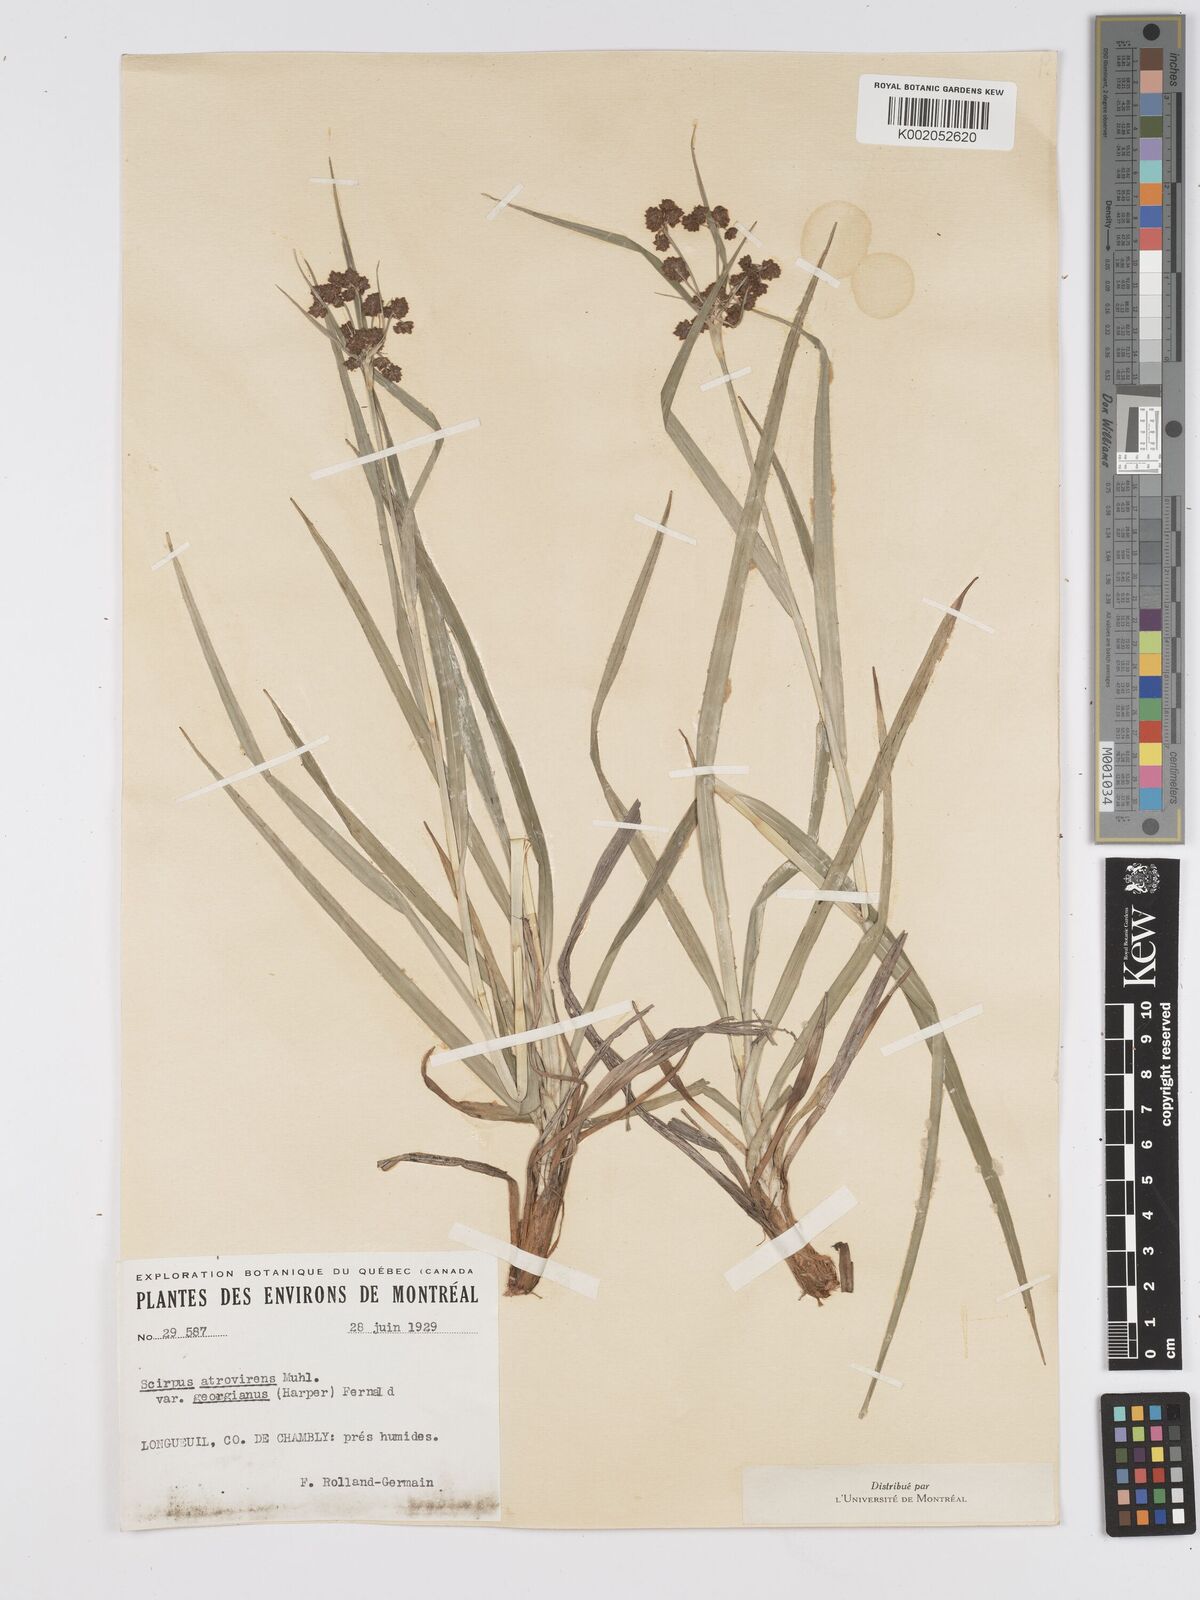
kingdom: Plantae
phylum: Tracheophyta
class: Liliopsida
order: Poales
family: Cyperaceae
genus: Scirpus
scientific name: Scirpus atrovirens
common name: Black bulrush
